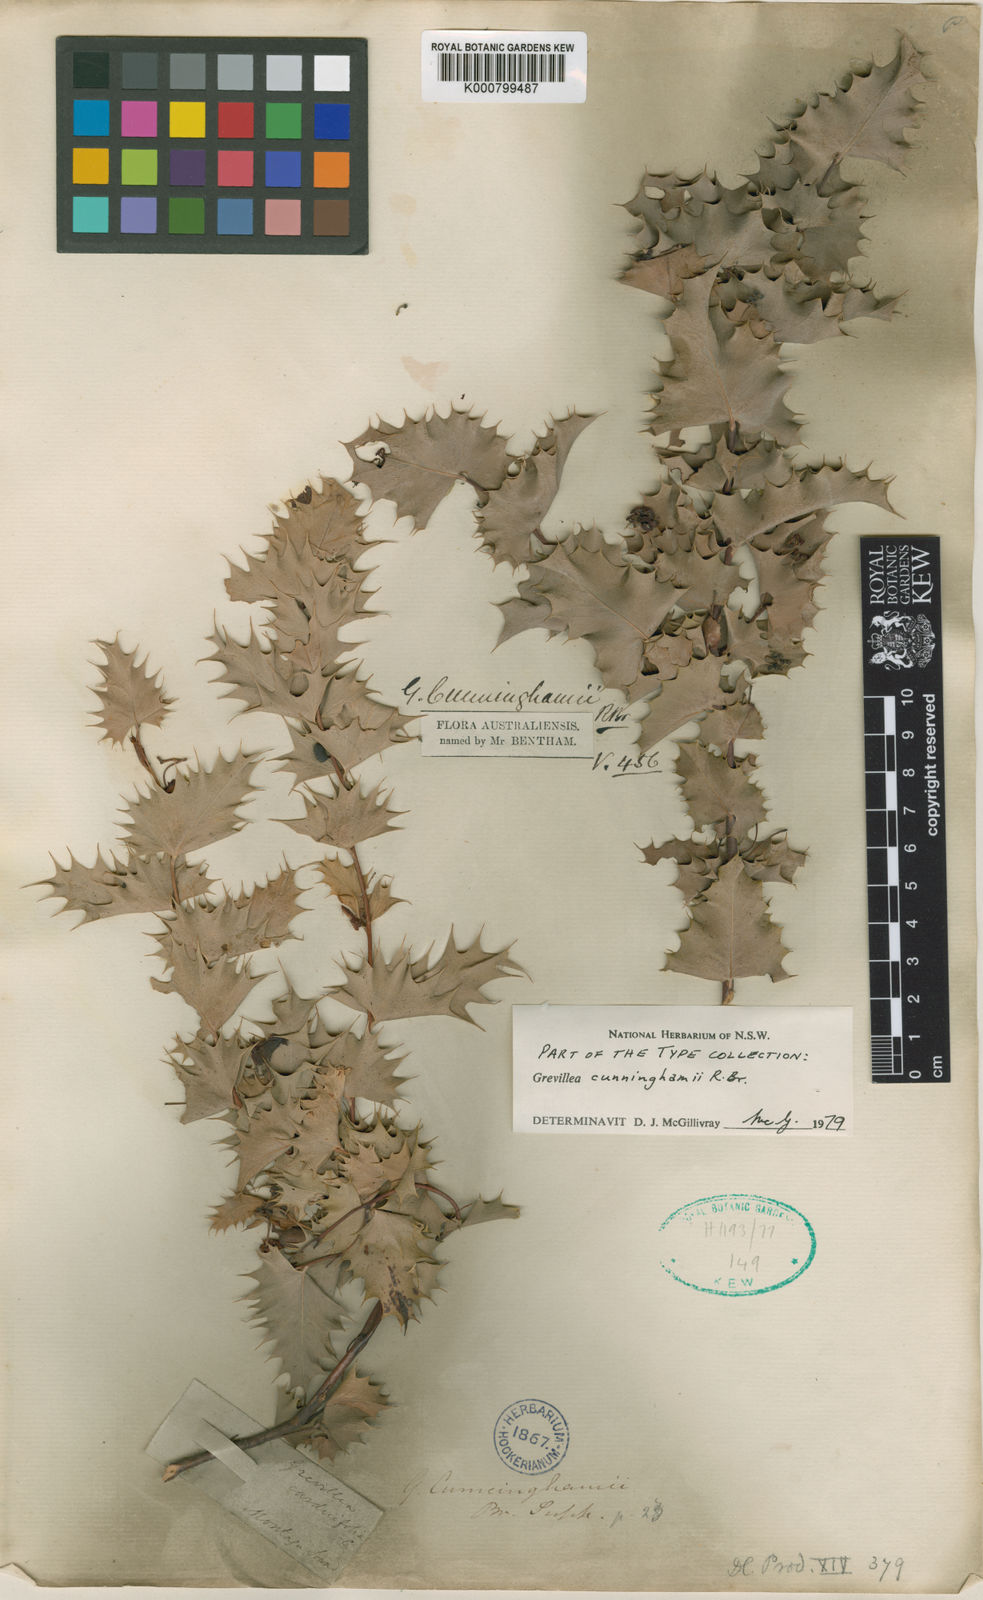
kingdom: Plantae
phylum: Tracheophyta
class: Magnoliopsida
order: Proteales
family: Proteaceae
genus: Grevillea
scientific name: Grevillea cunninghamii
